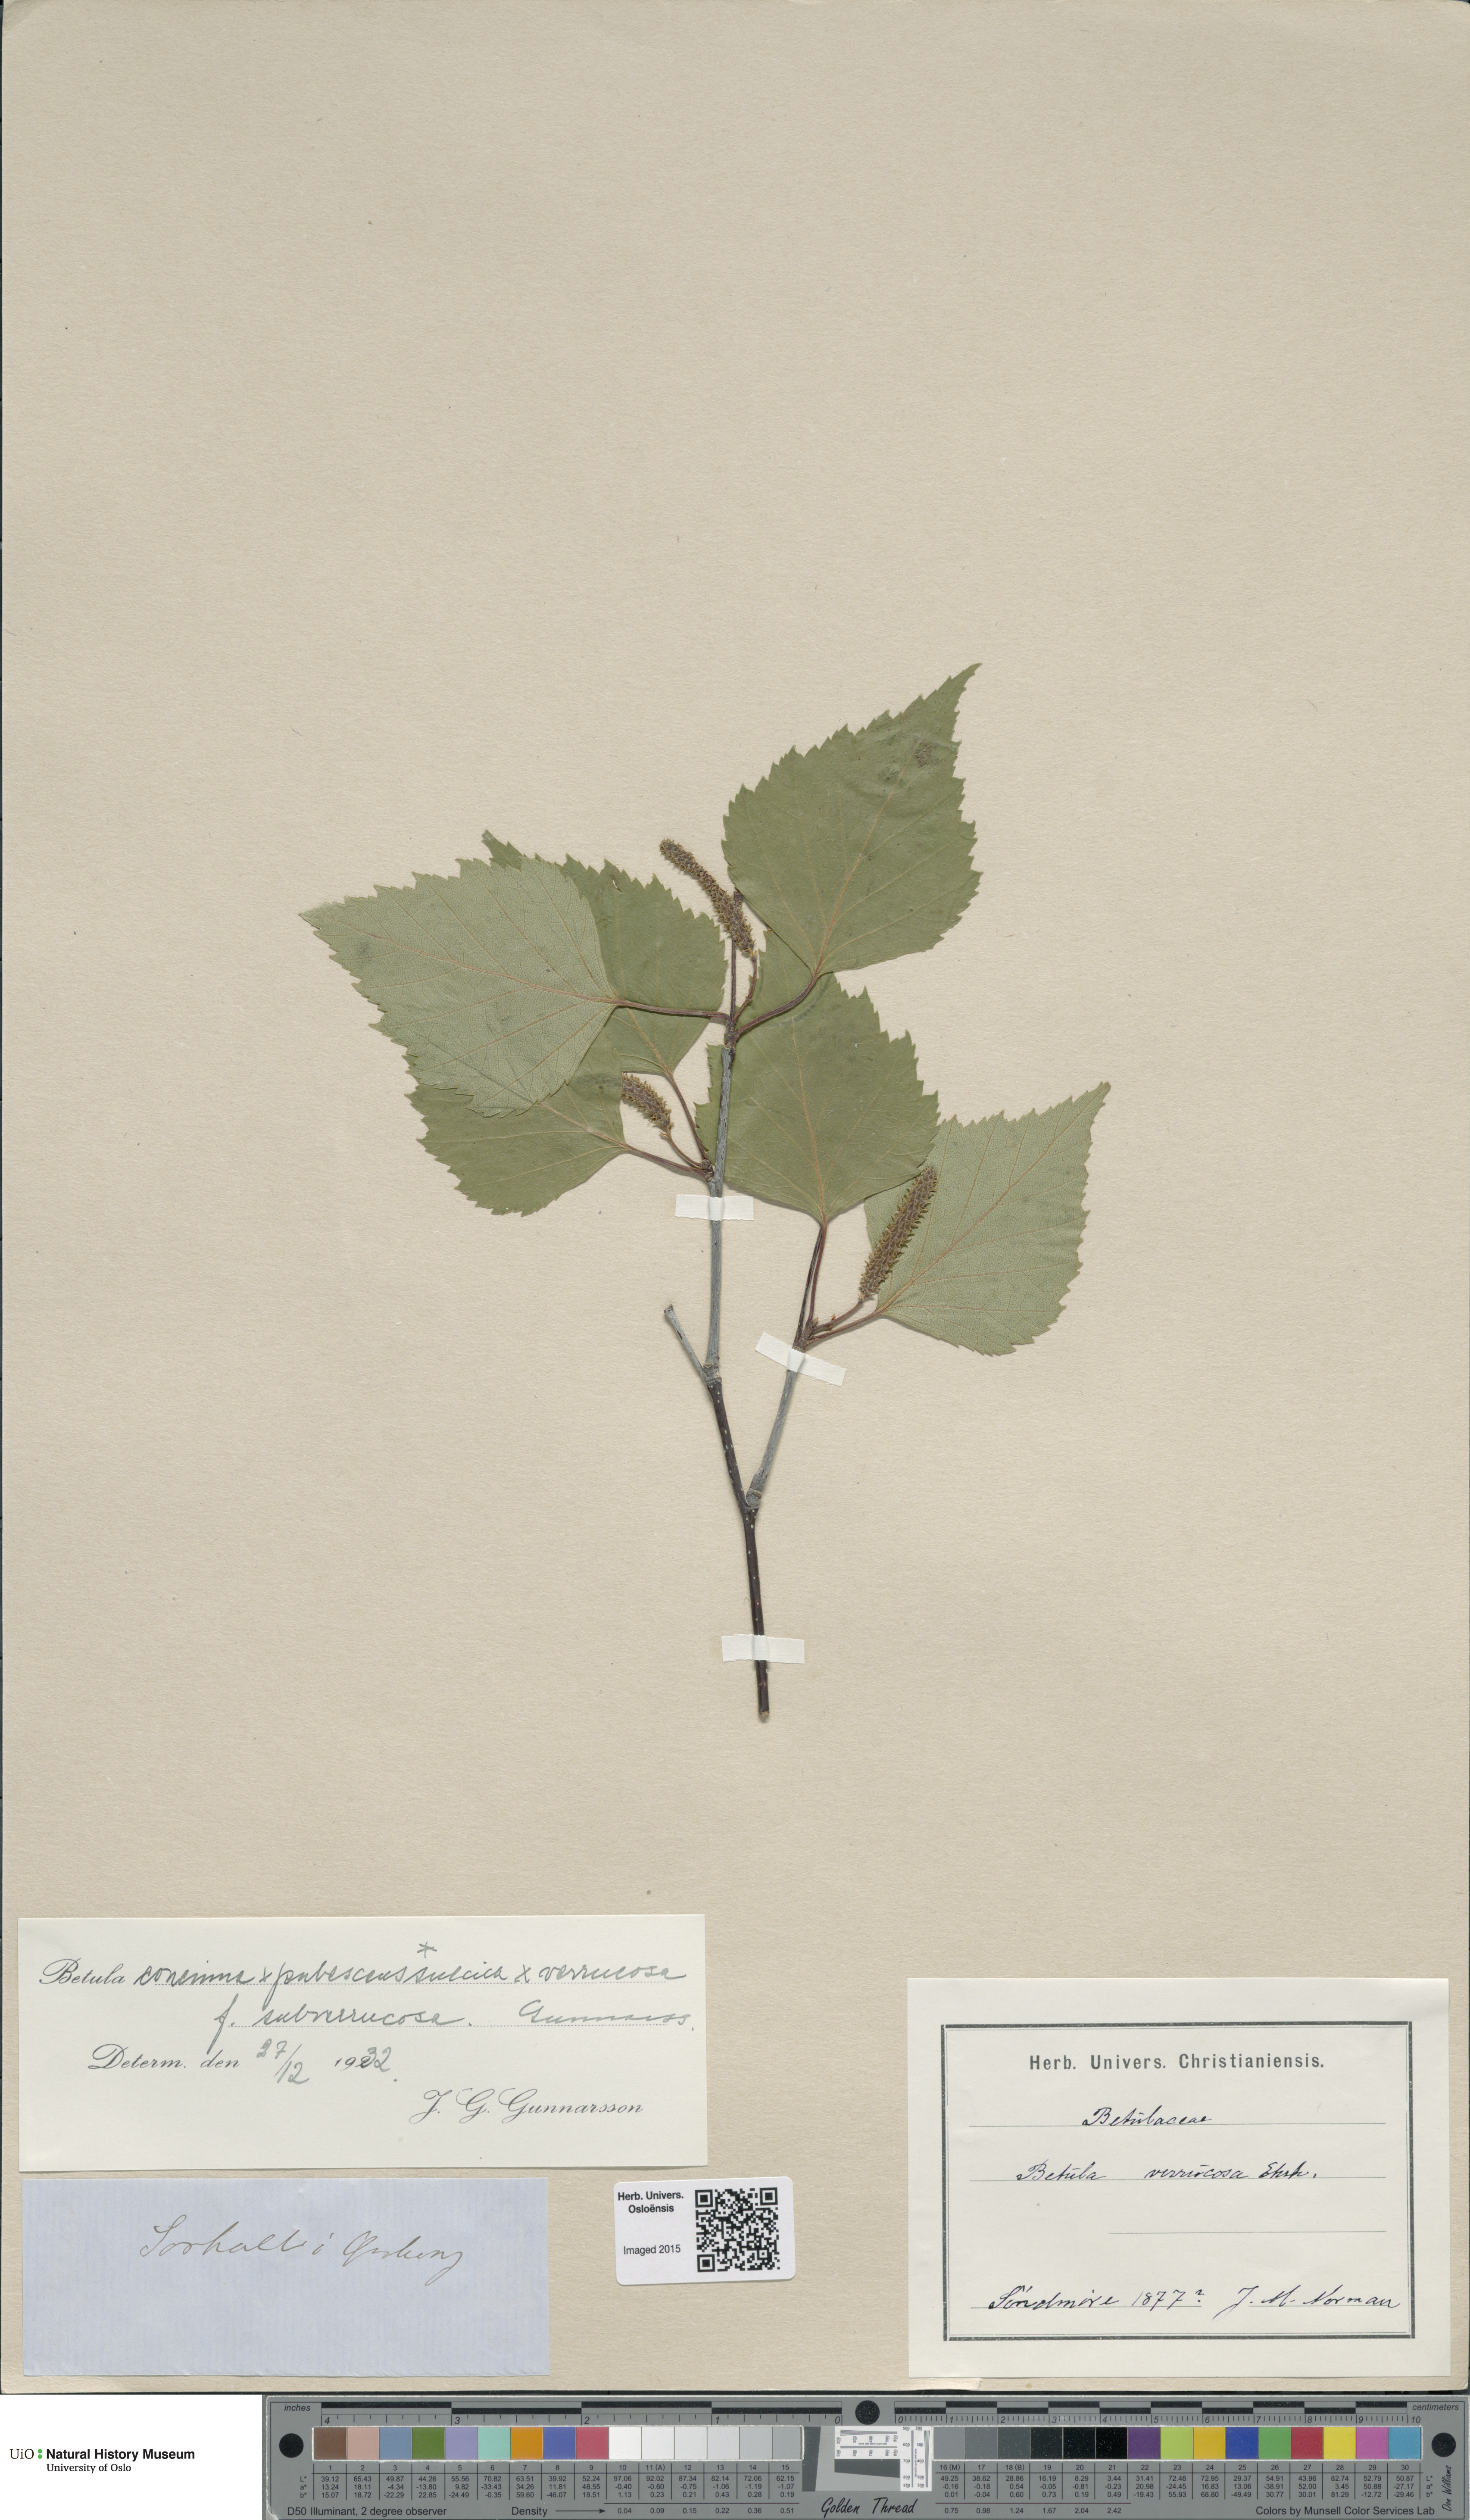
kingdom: Plantae
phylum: Tracheophyta
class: Magnoliopsida
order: Fagales
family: Betulaceae
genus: Betula
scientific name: Betula pubescens
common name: Downy birch
